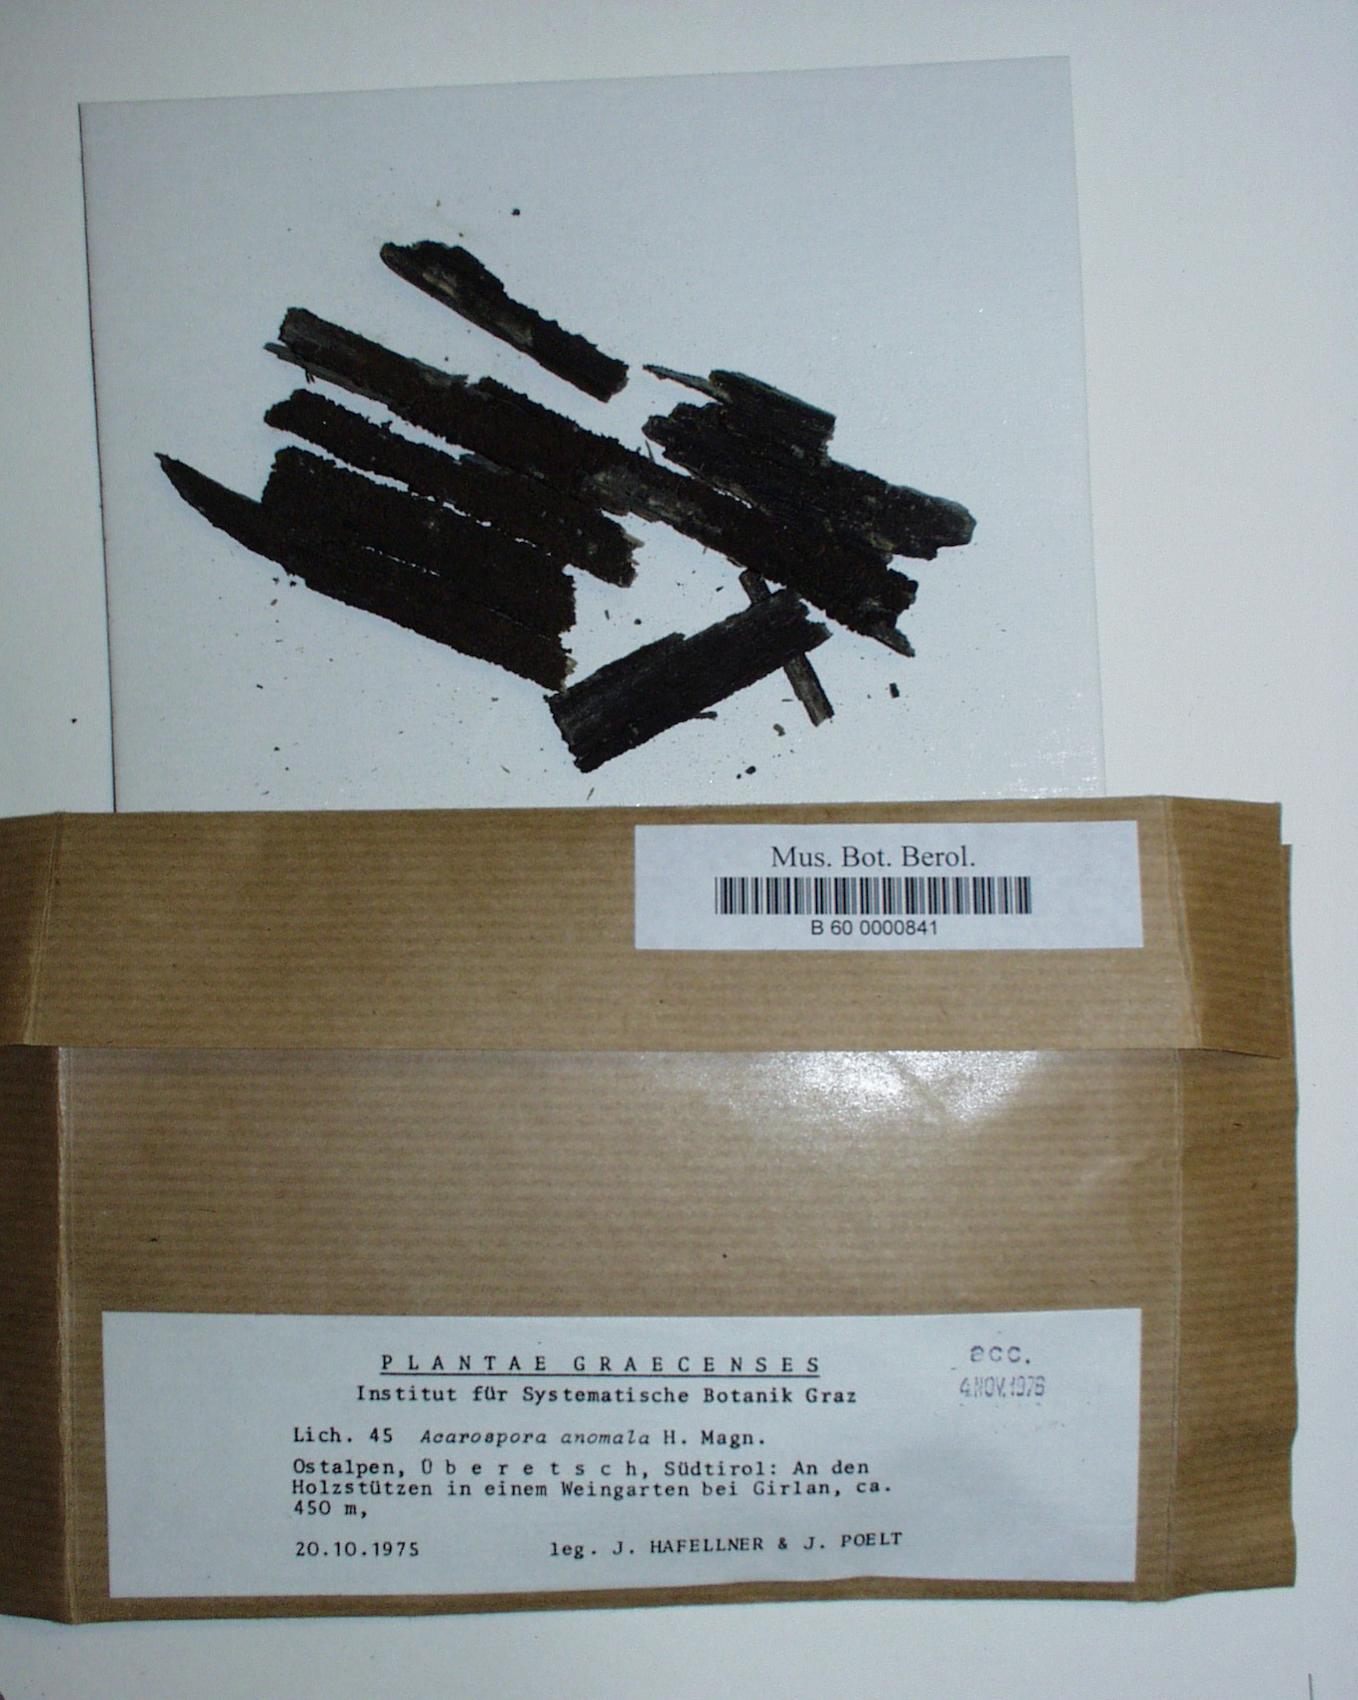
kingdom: Fungi
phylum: Ascomycota
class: Lecanoromycetes
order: Acarosporales
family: Acarosporaceae
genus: Acarospora
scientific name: Acarospora anomala
